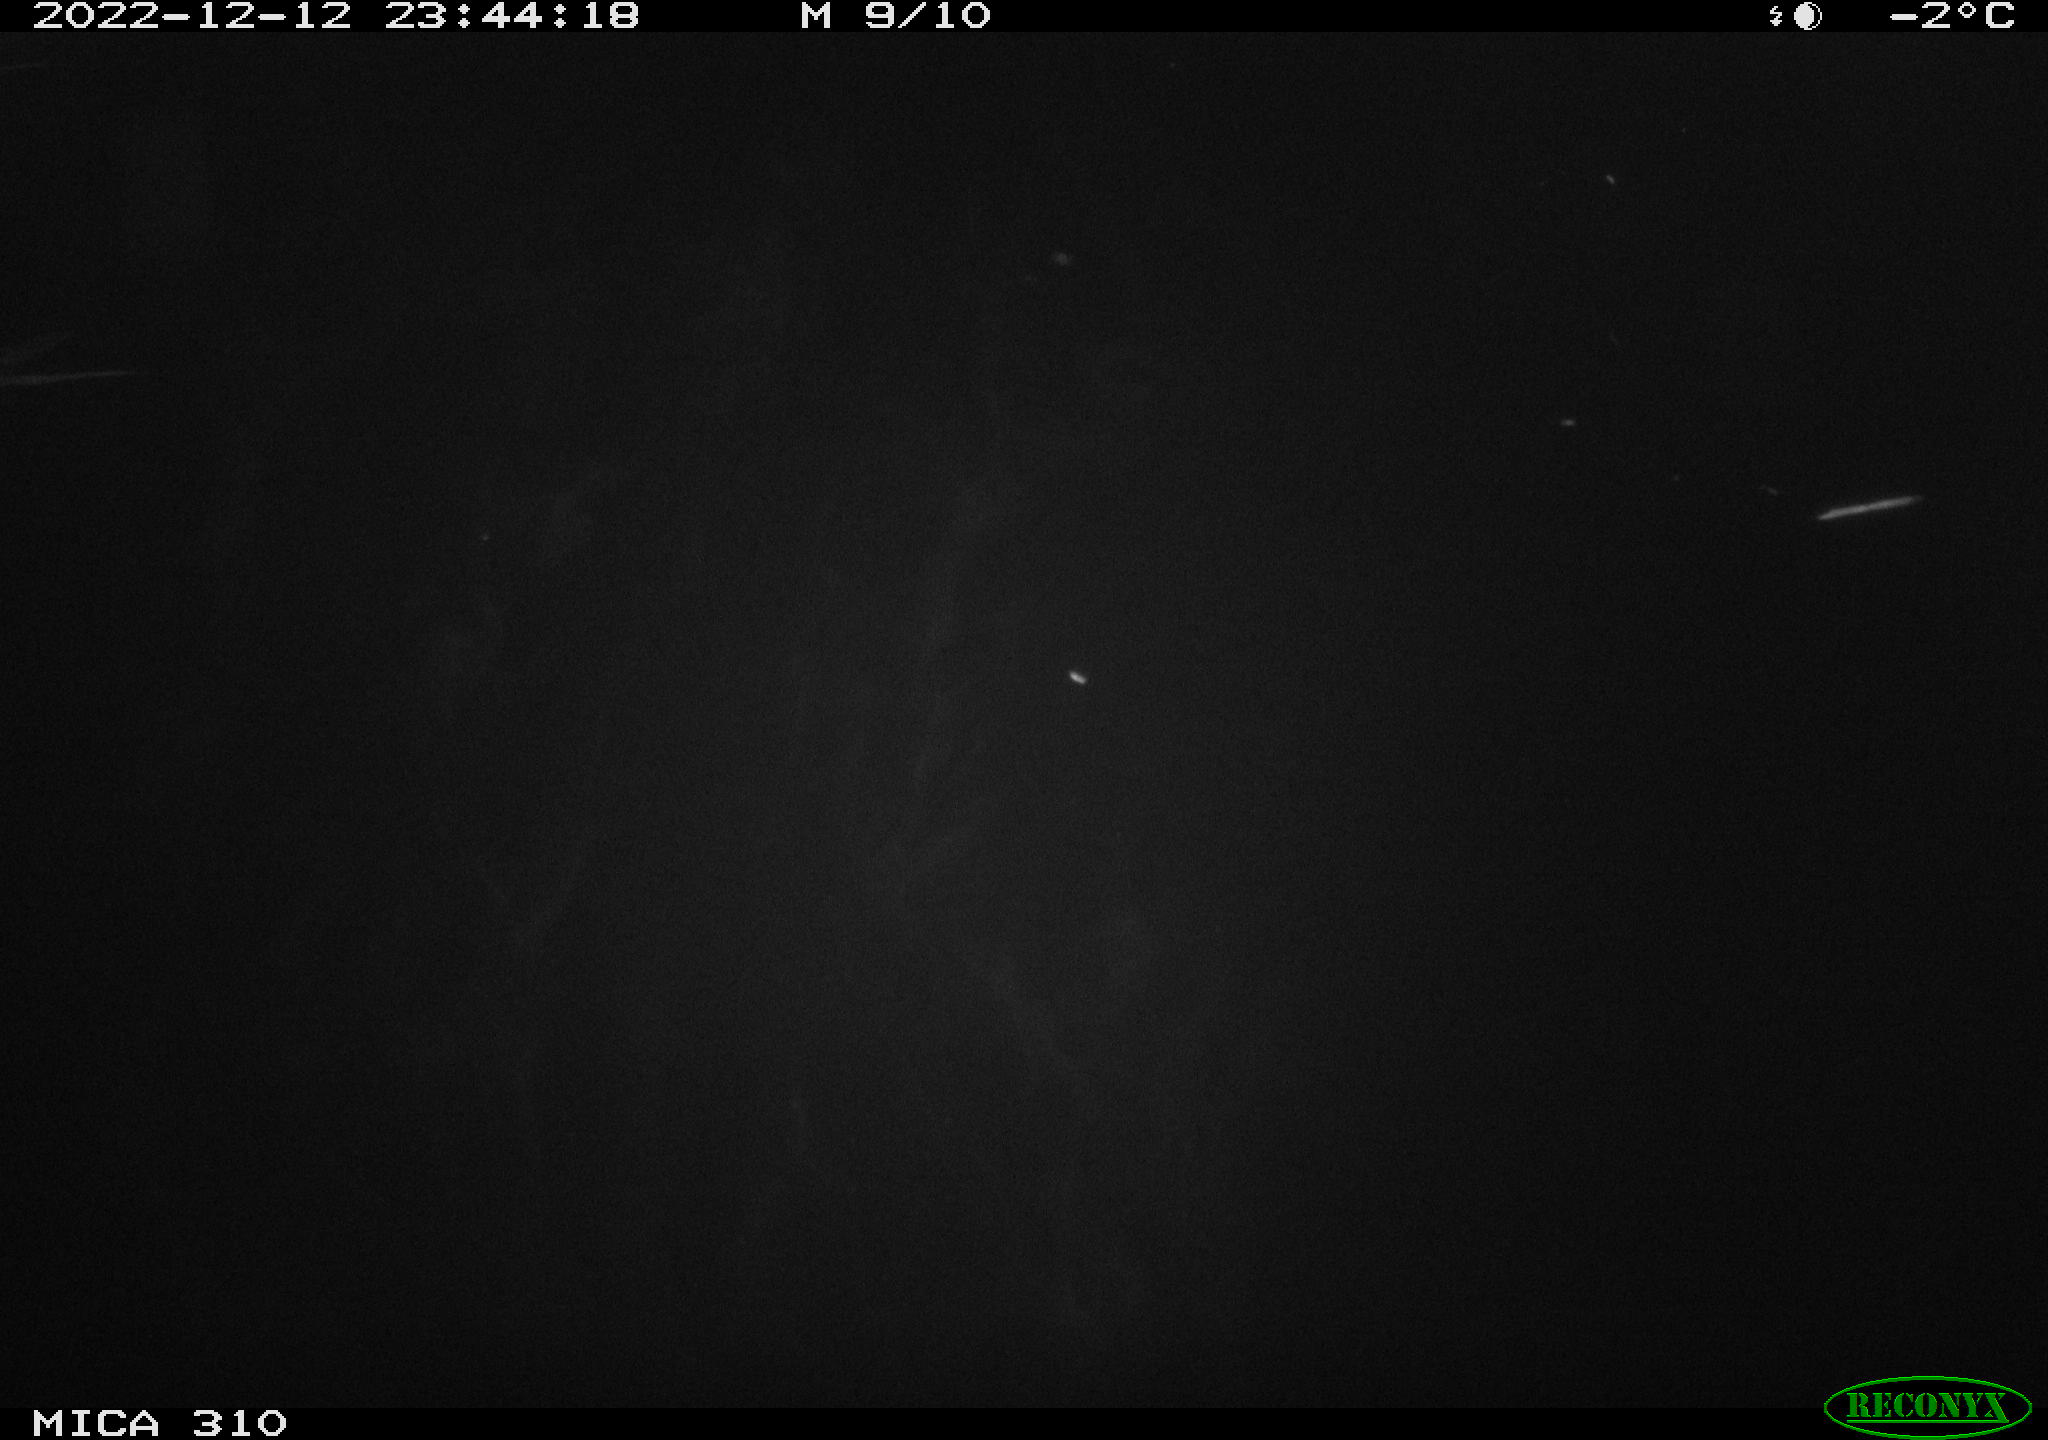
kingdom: Animalia
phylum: Chordata
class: Aves
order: Pelecaniformes
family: Ardeidae
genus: Ardea
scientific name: Ardea cinerea
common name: Grey heron
